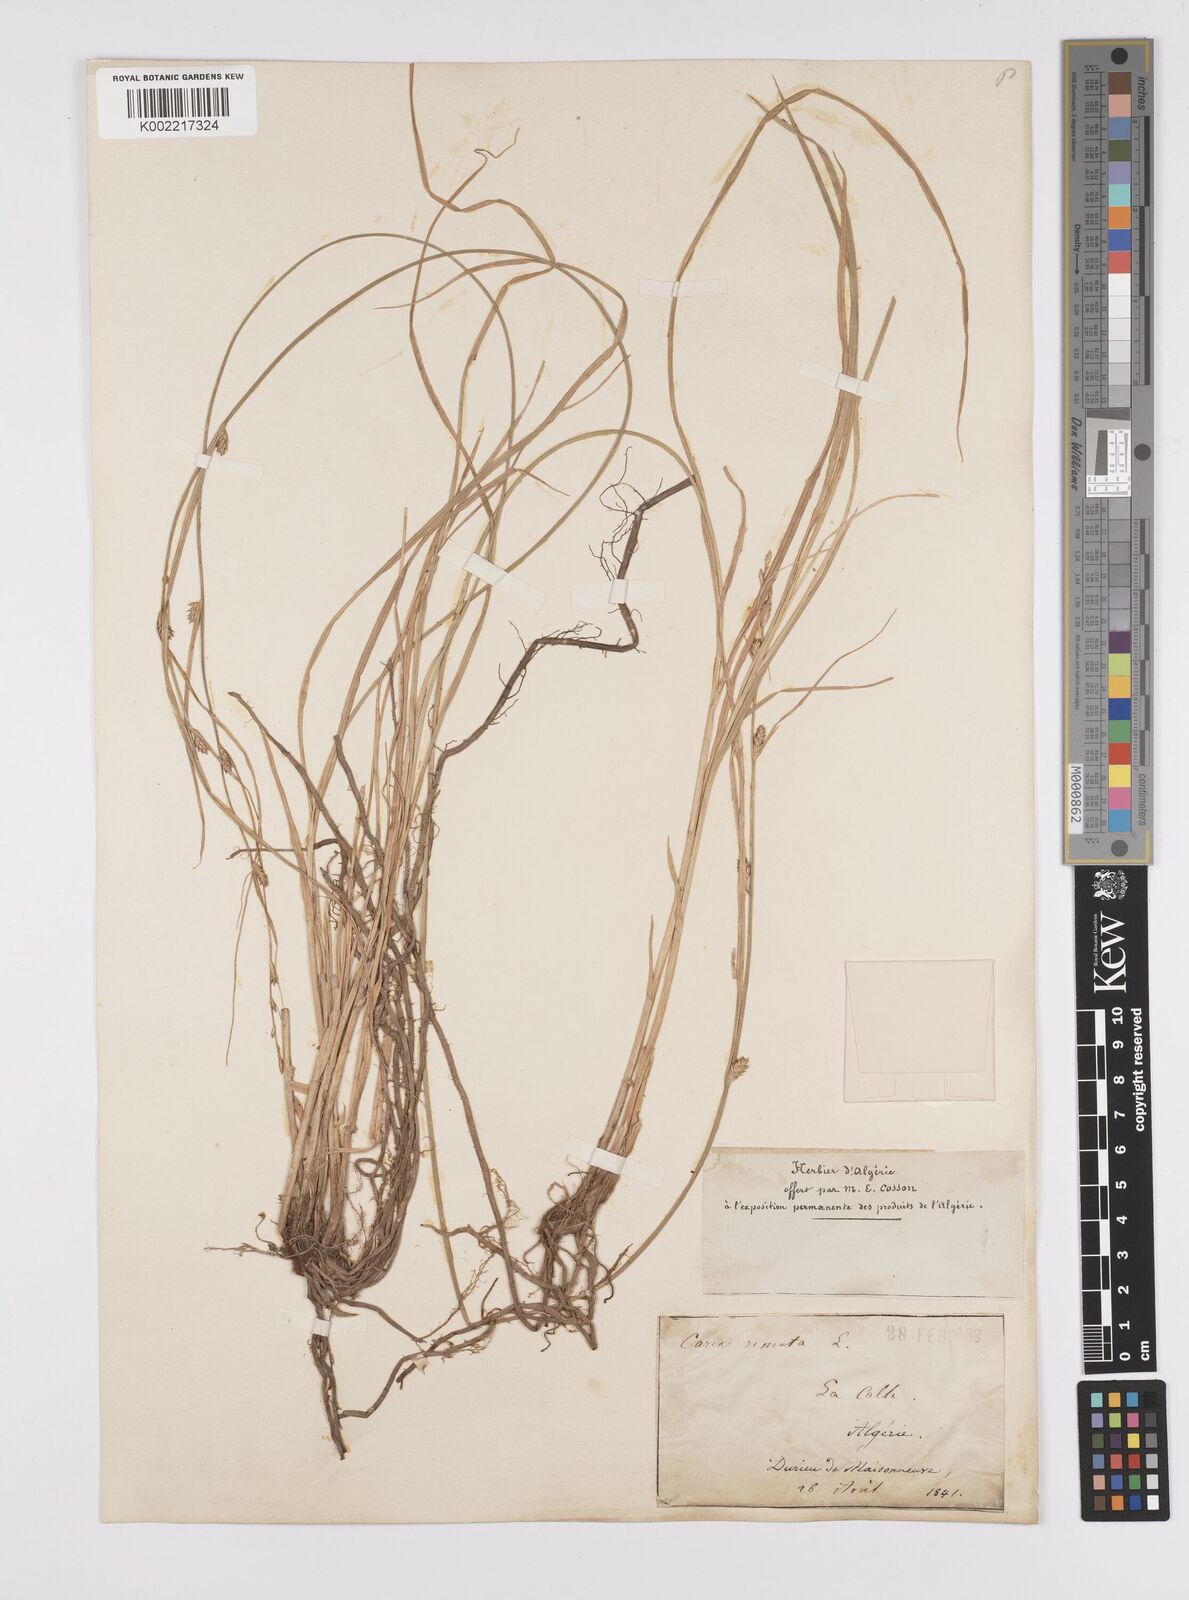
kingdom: Plantae
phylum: Tracheophyta
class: Liliopsida
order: Poales
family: Cyperaceae
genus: Carex
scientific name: Carex remota
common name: Remote sedge
